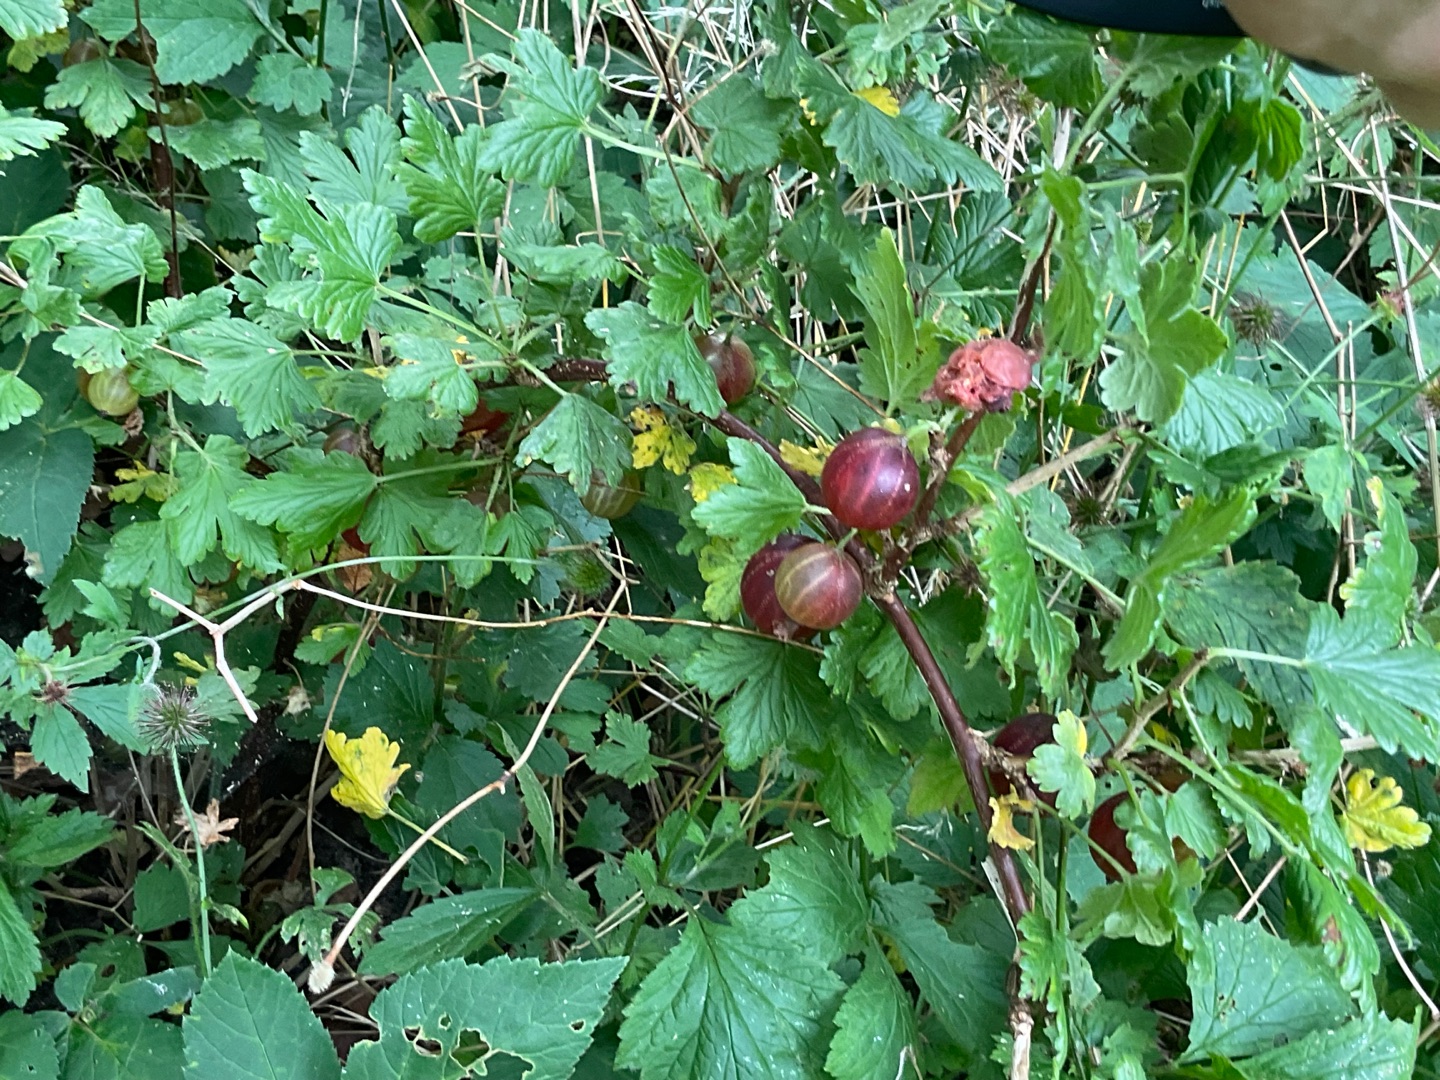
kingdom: Plantae
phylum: Tracheophyta
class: Magnoliopsida
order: Saxifragales
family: Grossulariaceae
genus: Ribes
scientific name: Ribes uva-crispa
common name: Stikkelsbær
